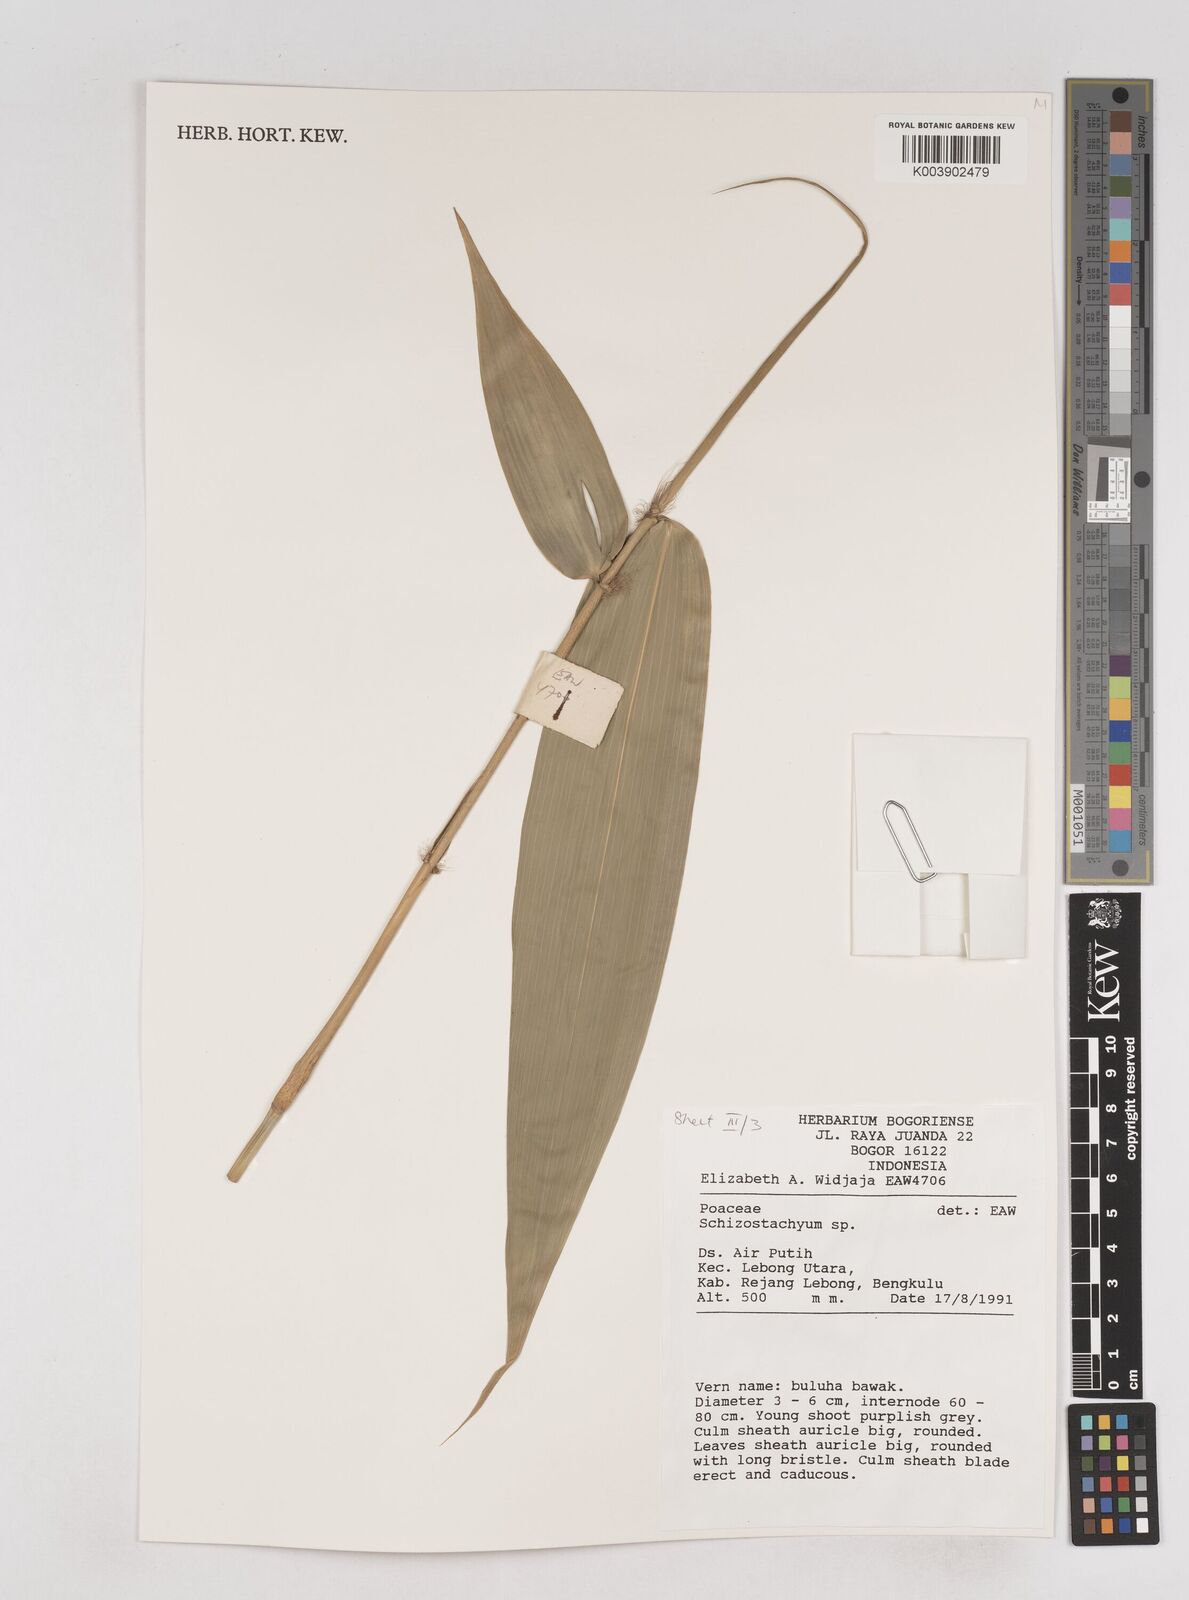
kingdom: Plantae
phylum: Tracheophyta
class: Liliopsida
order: Poales
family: Poaceae
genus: Schizostachyum
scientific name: Schizostachyum
